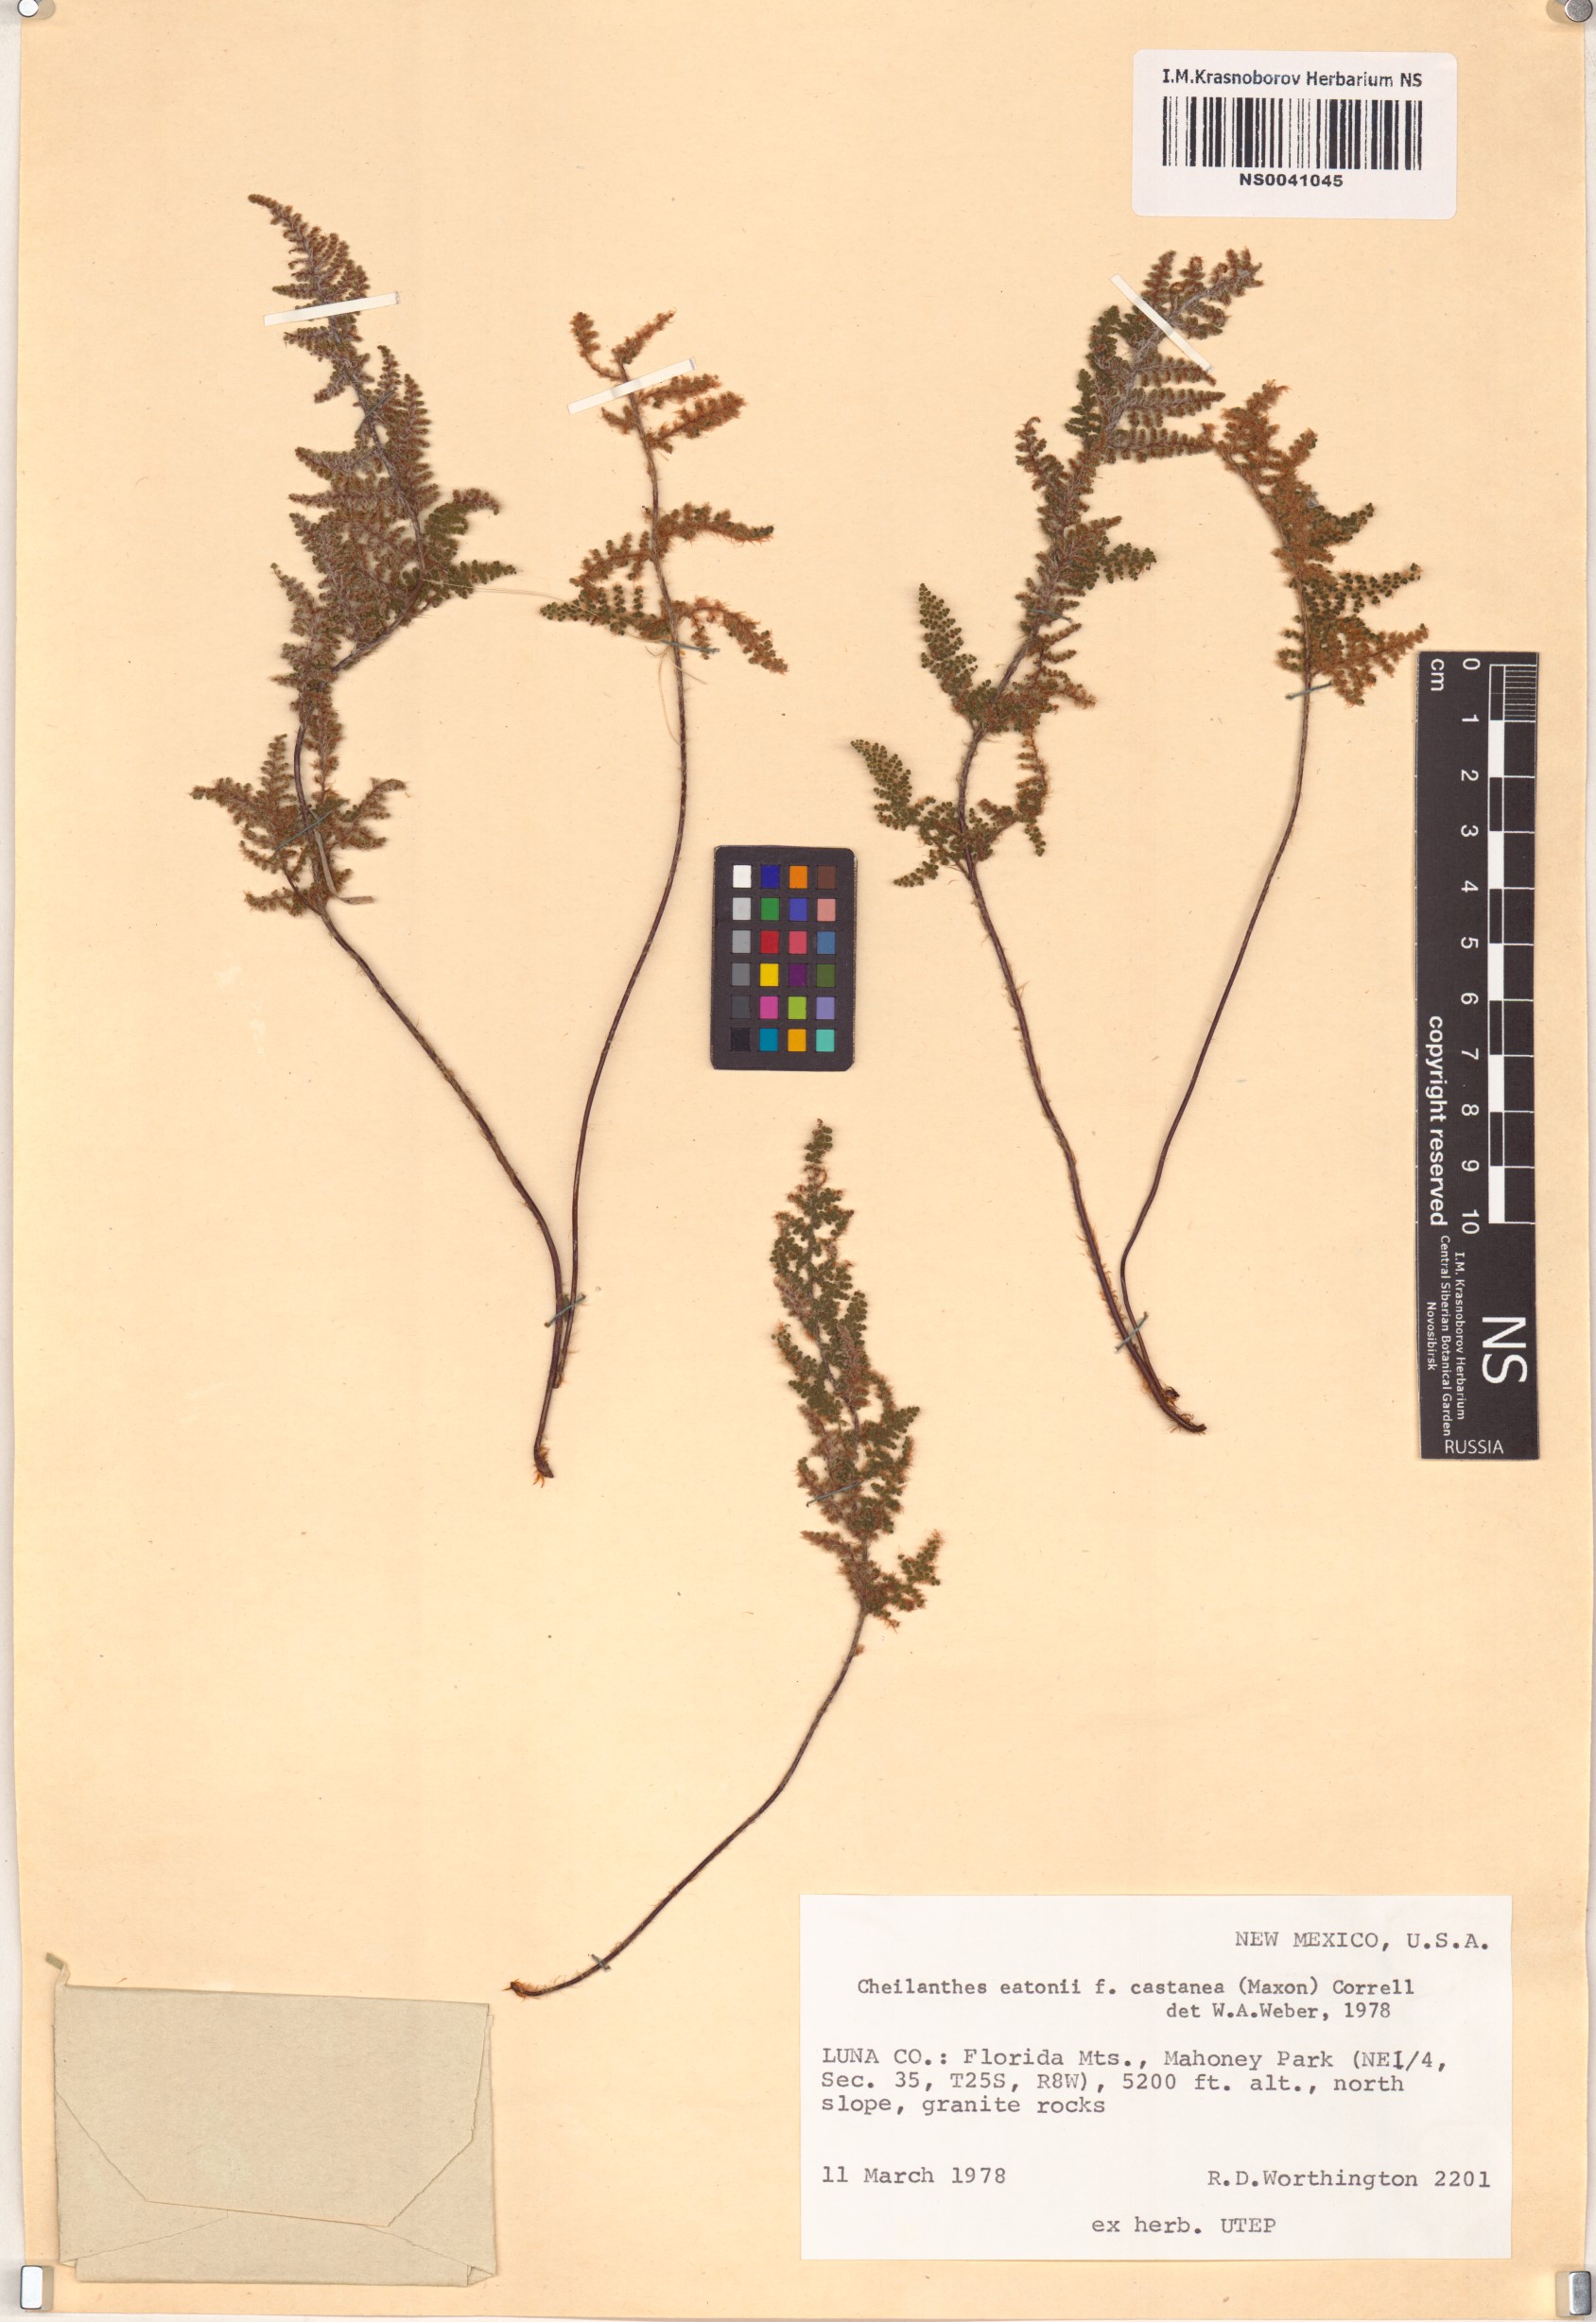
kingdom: Plantae
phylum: Tracheophyta
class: Polypodiopsida
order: Polypodiales
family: Pteridaceae
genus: Myriopteris
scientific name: Myriopteris rufa
